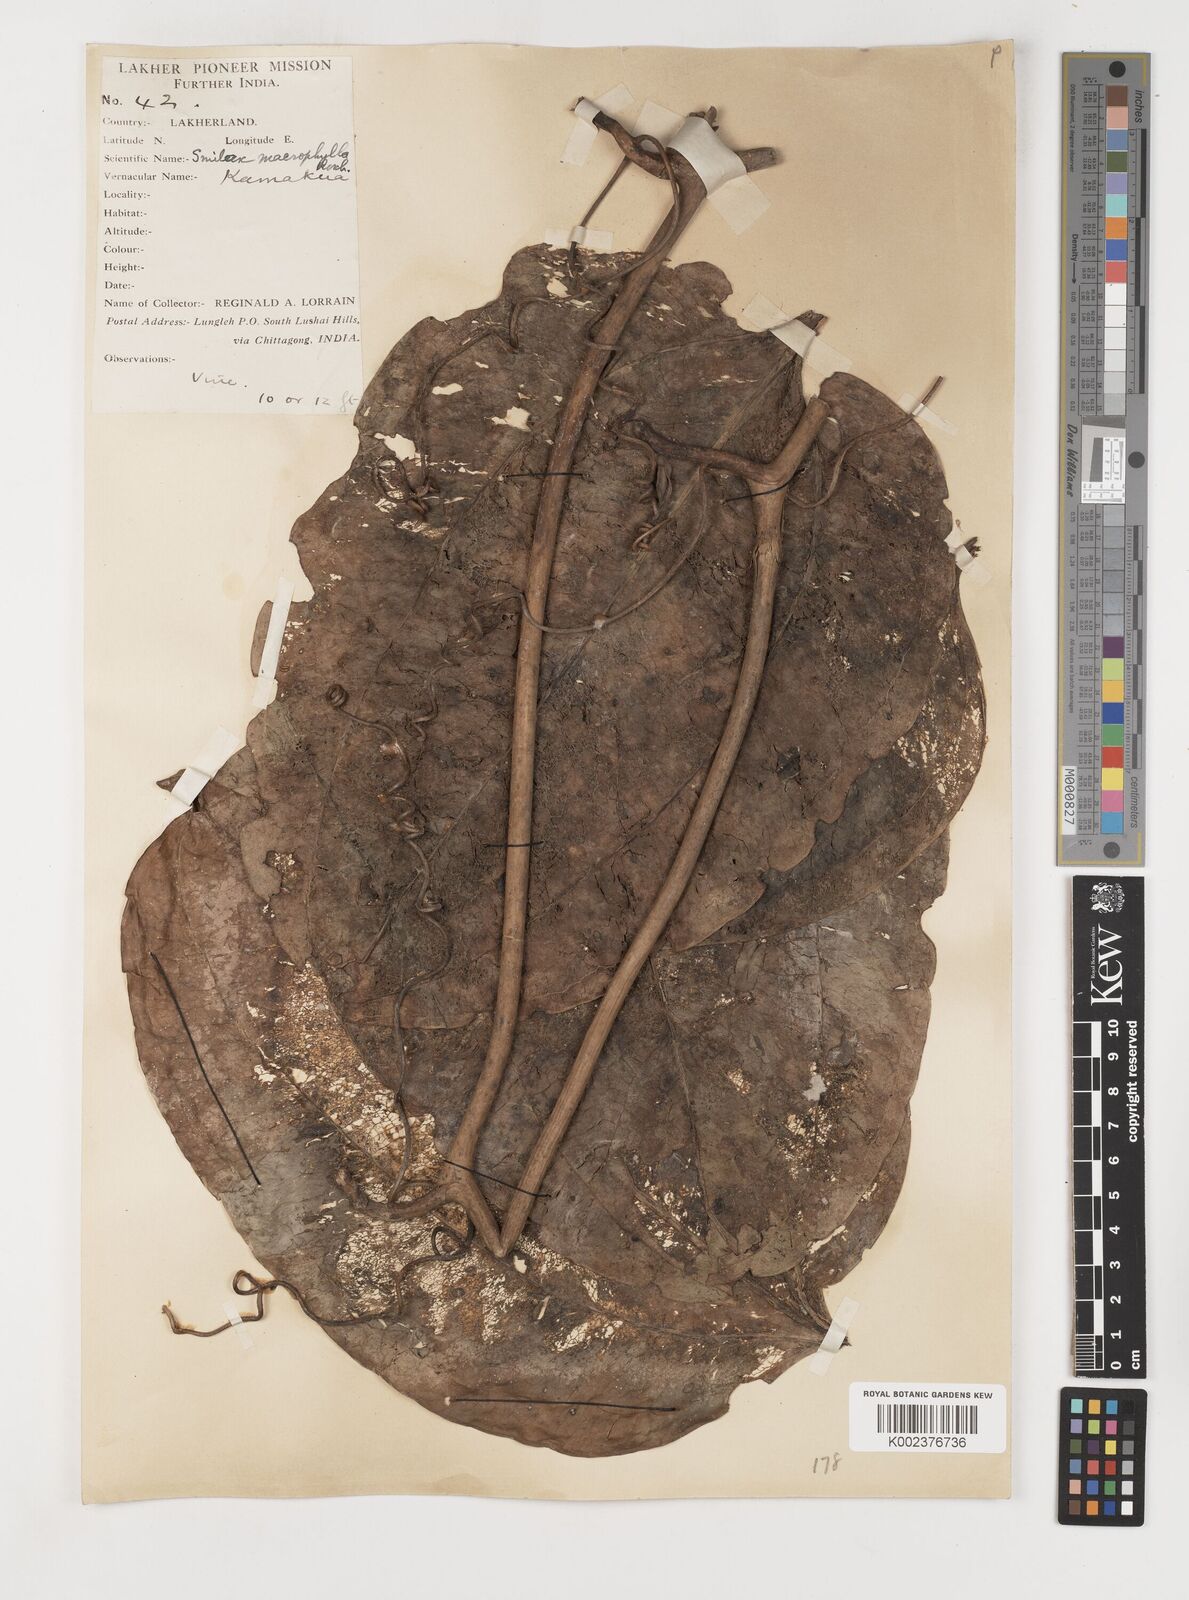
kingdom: Plantae
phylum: Tracheophyta
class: Liliopsida
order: Liliales
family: Smilacaceae
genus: Smilax
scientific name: Smilax ovalifolia
